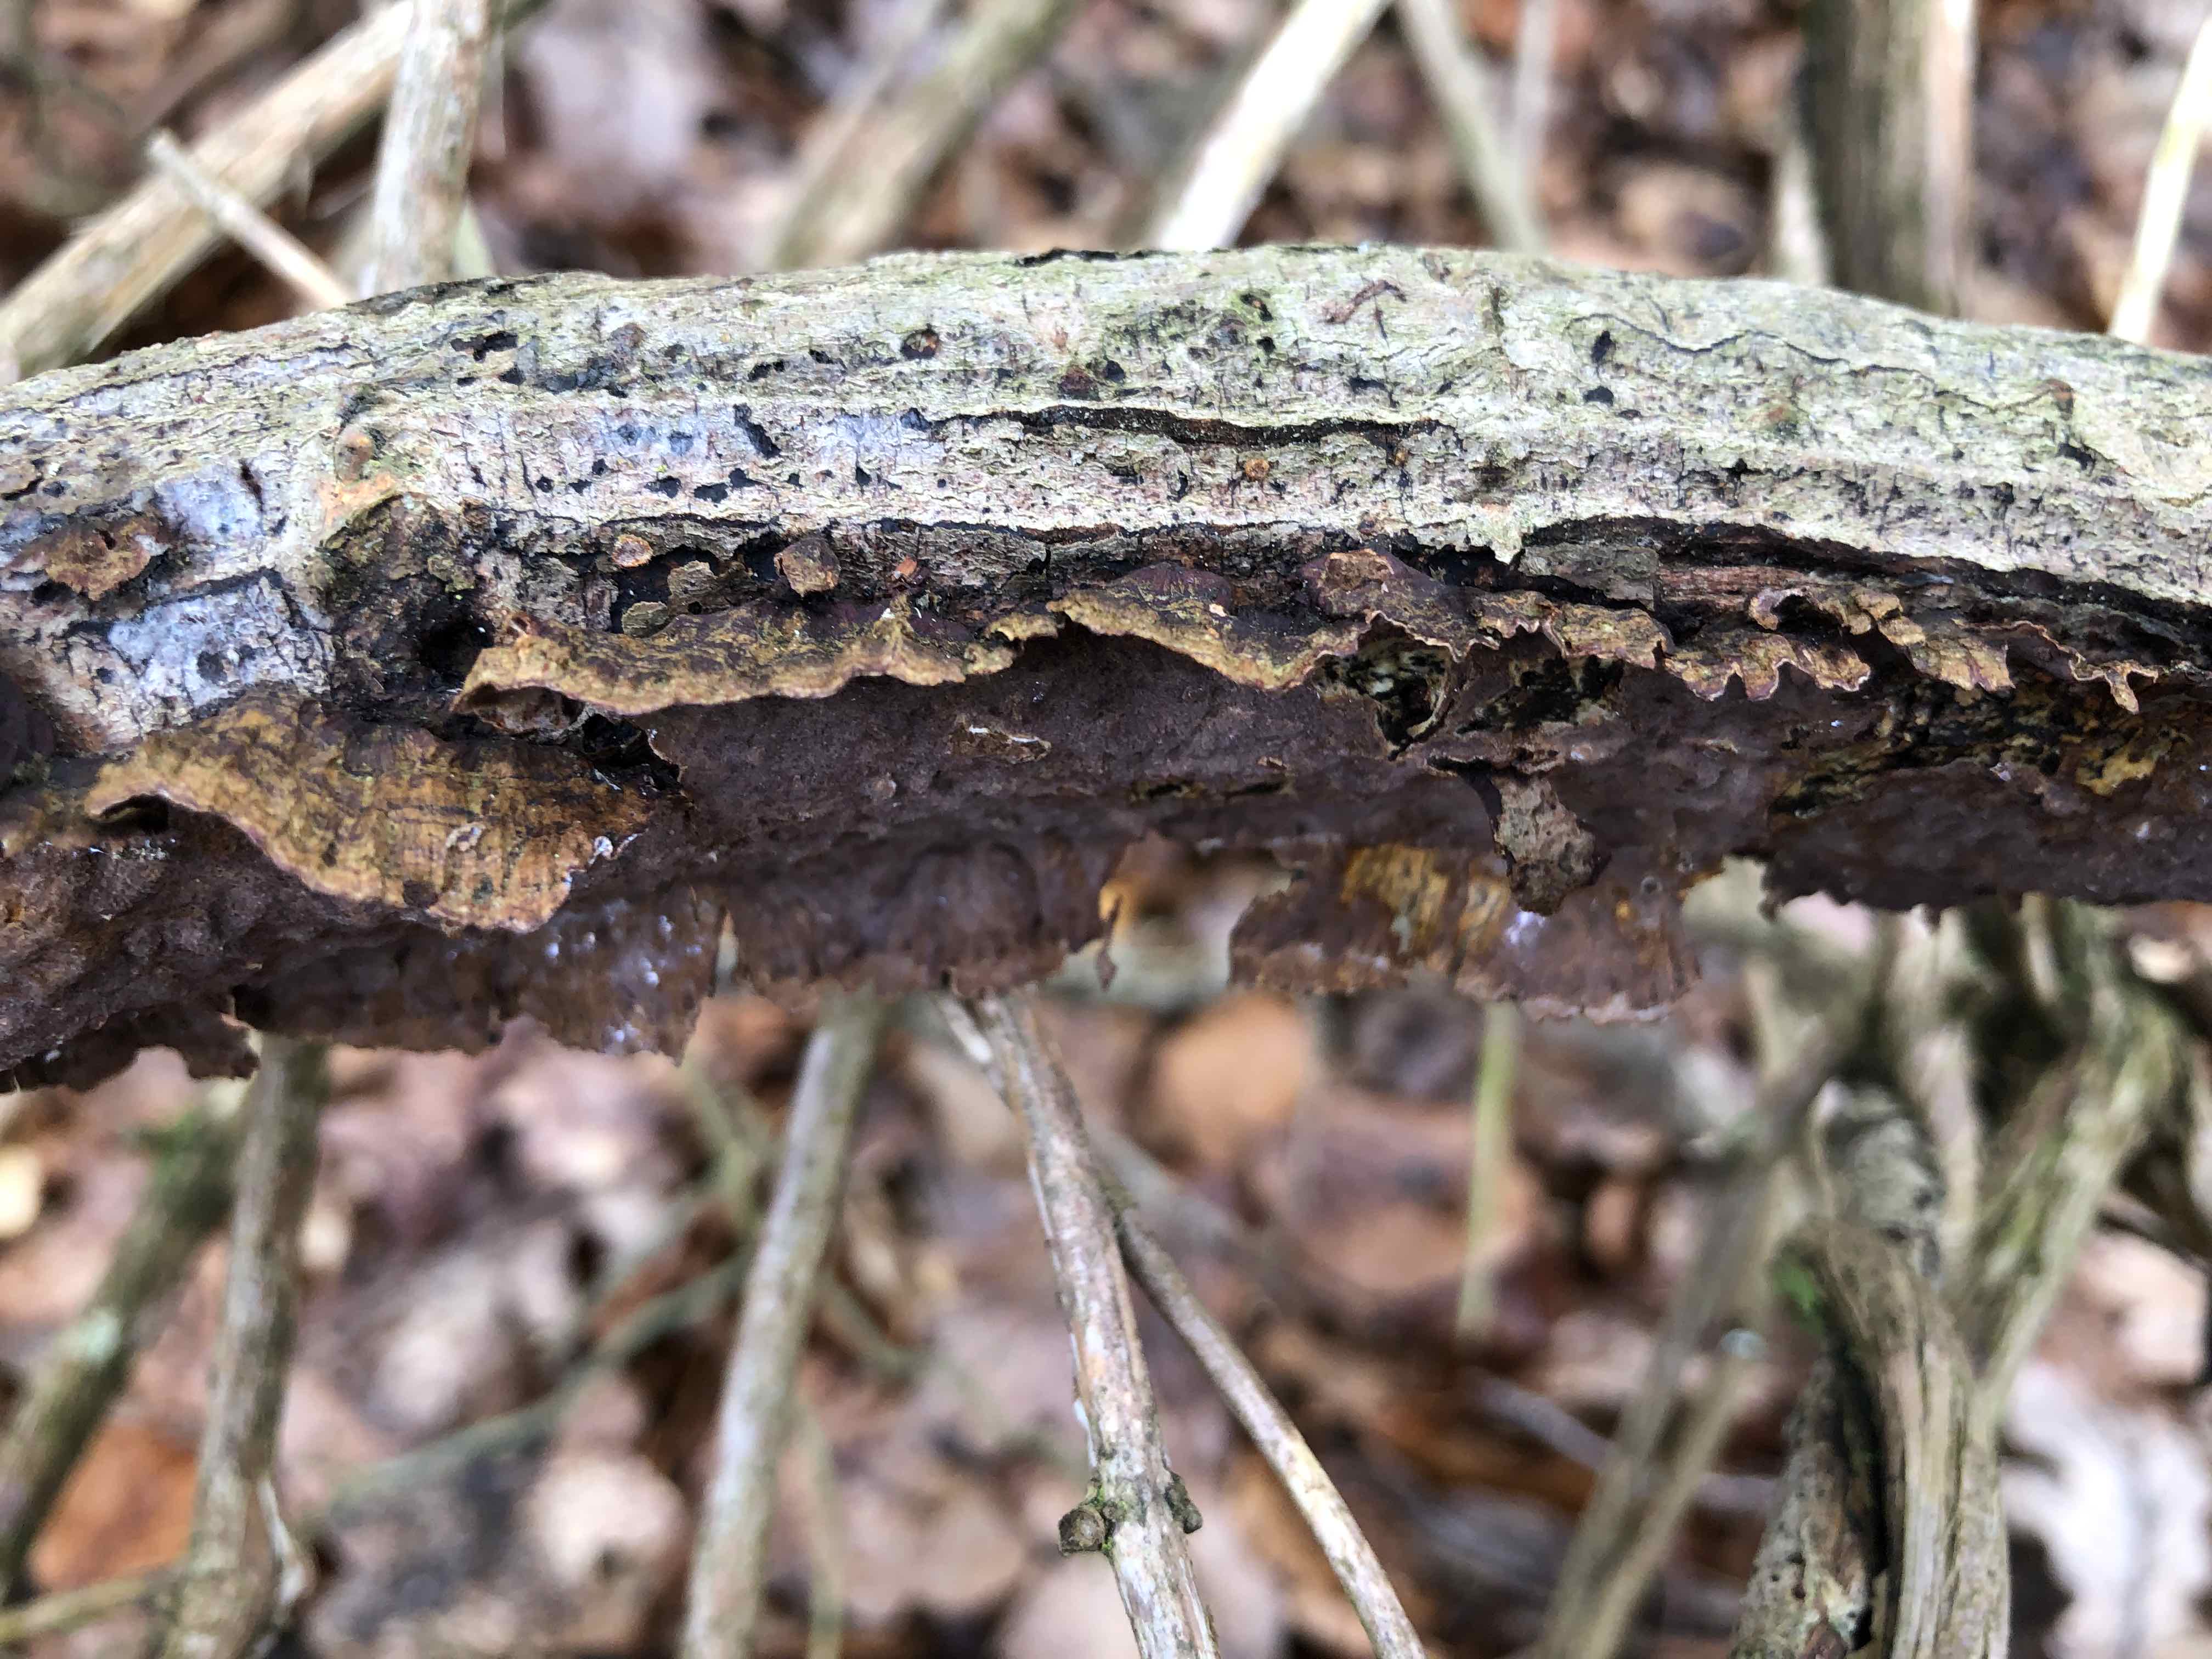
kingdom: Fungi
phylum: Basidiomycota
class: Agaricomycetes
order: Hymenochaetales
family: Hymenochaetaceae
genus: Hydnoporia
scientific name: Hydnoporia tabacina
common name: tobaksbrun ruslædersvamp
